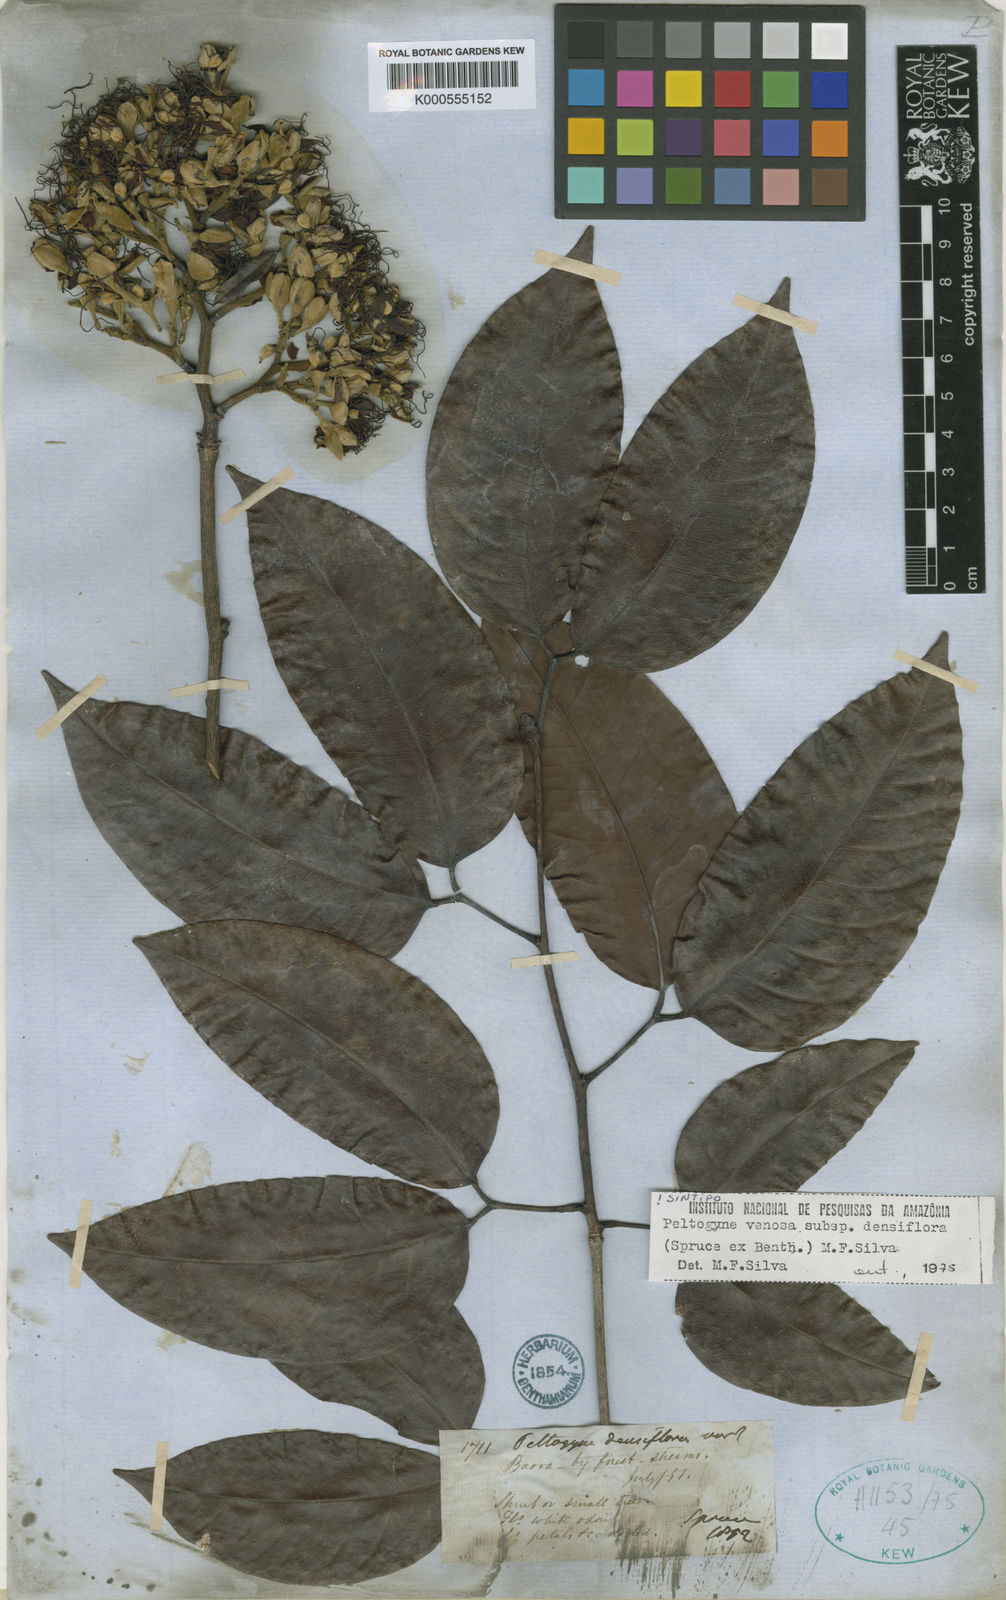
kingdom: Plantae
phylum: Tracheophyta
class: Magnoliopsida
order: Fabales
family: Fabaceae
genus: Peltogyne
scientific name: Peltogyne venosa
